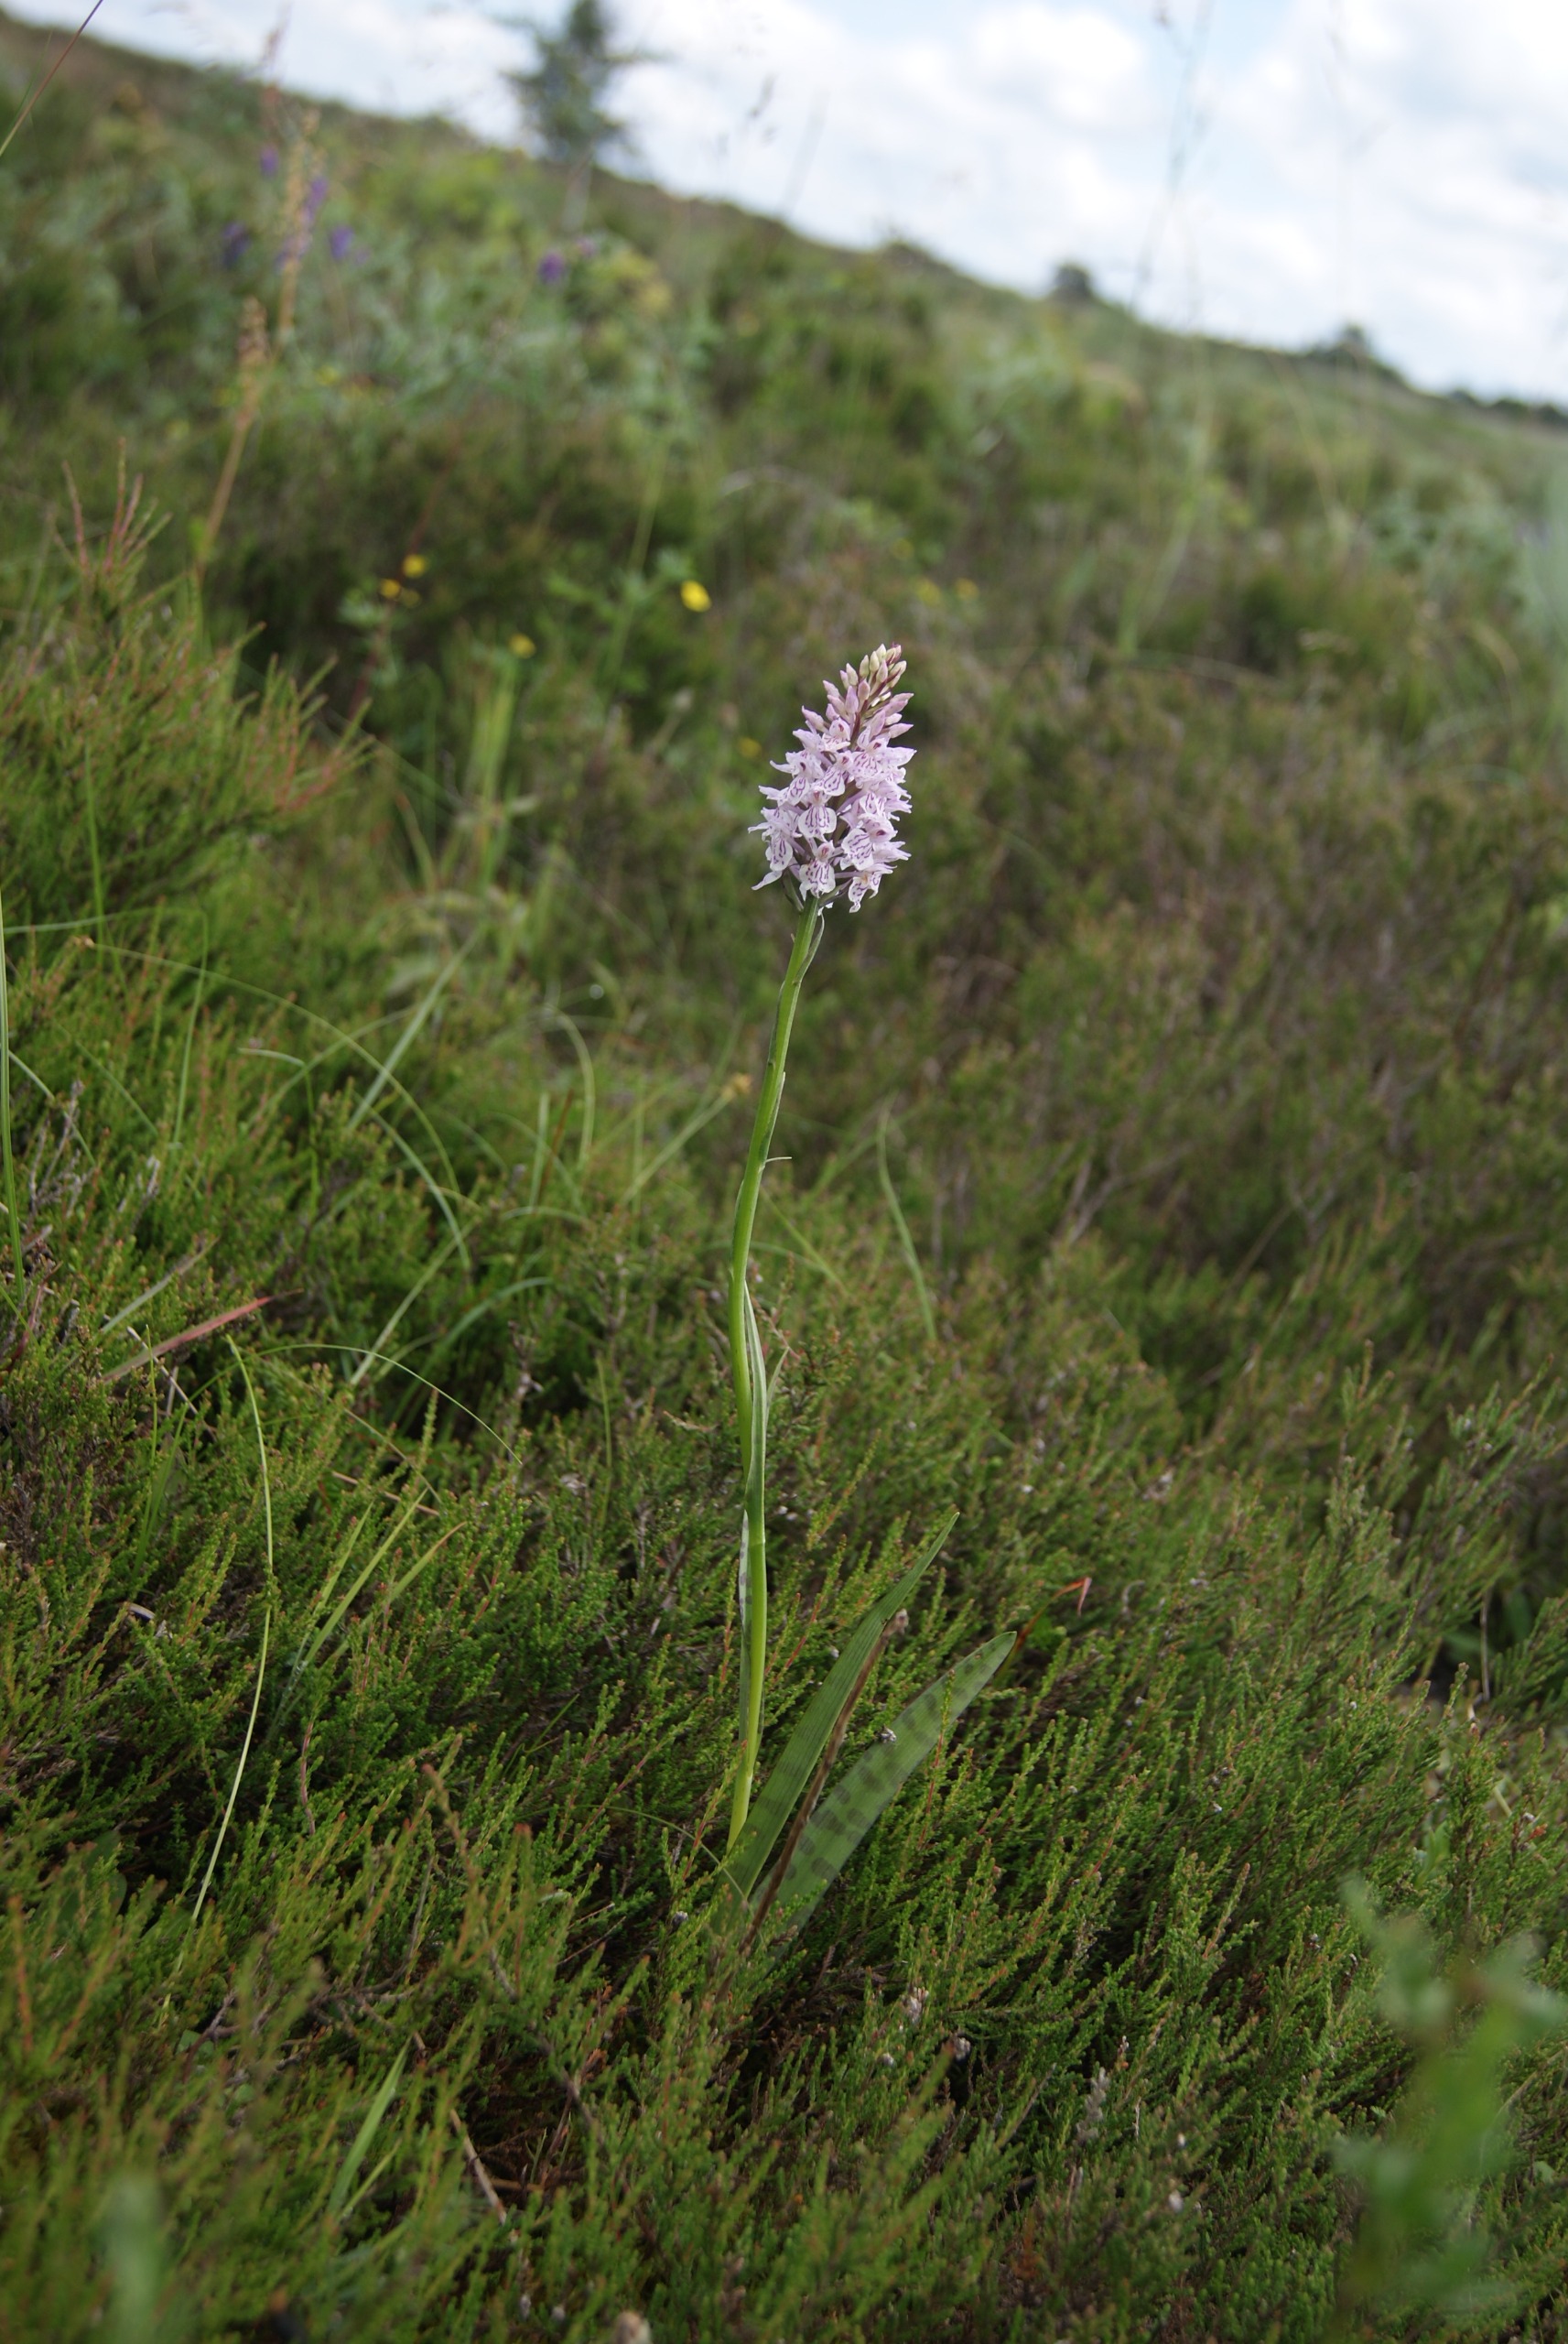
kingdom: Plantae
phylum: Tracheophyta
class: Liliopsida
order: Asparagales
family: Orchidaceae
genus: Dactylorhiza
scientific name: Dactylorhiza maculata
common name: Plettet gøgeurt
